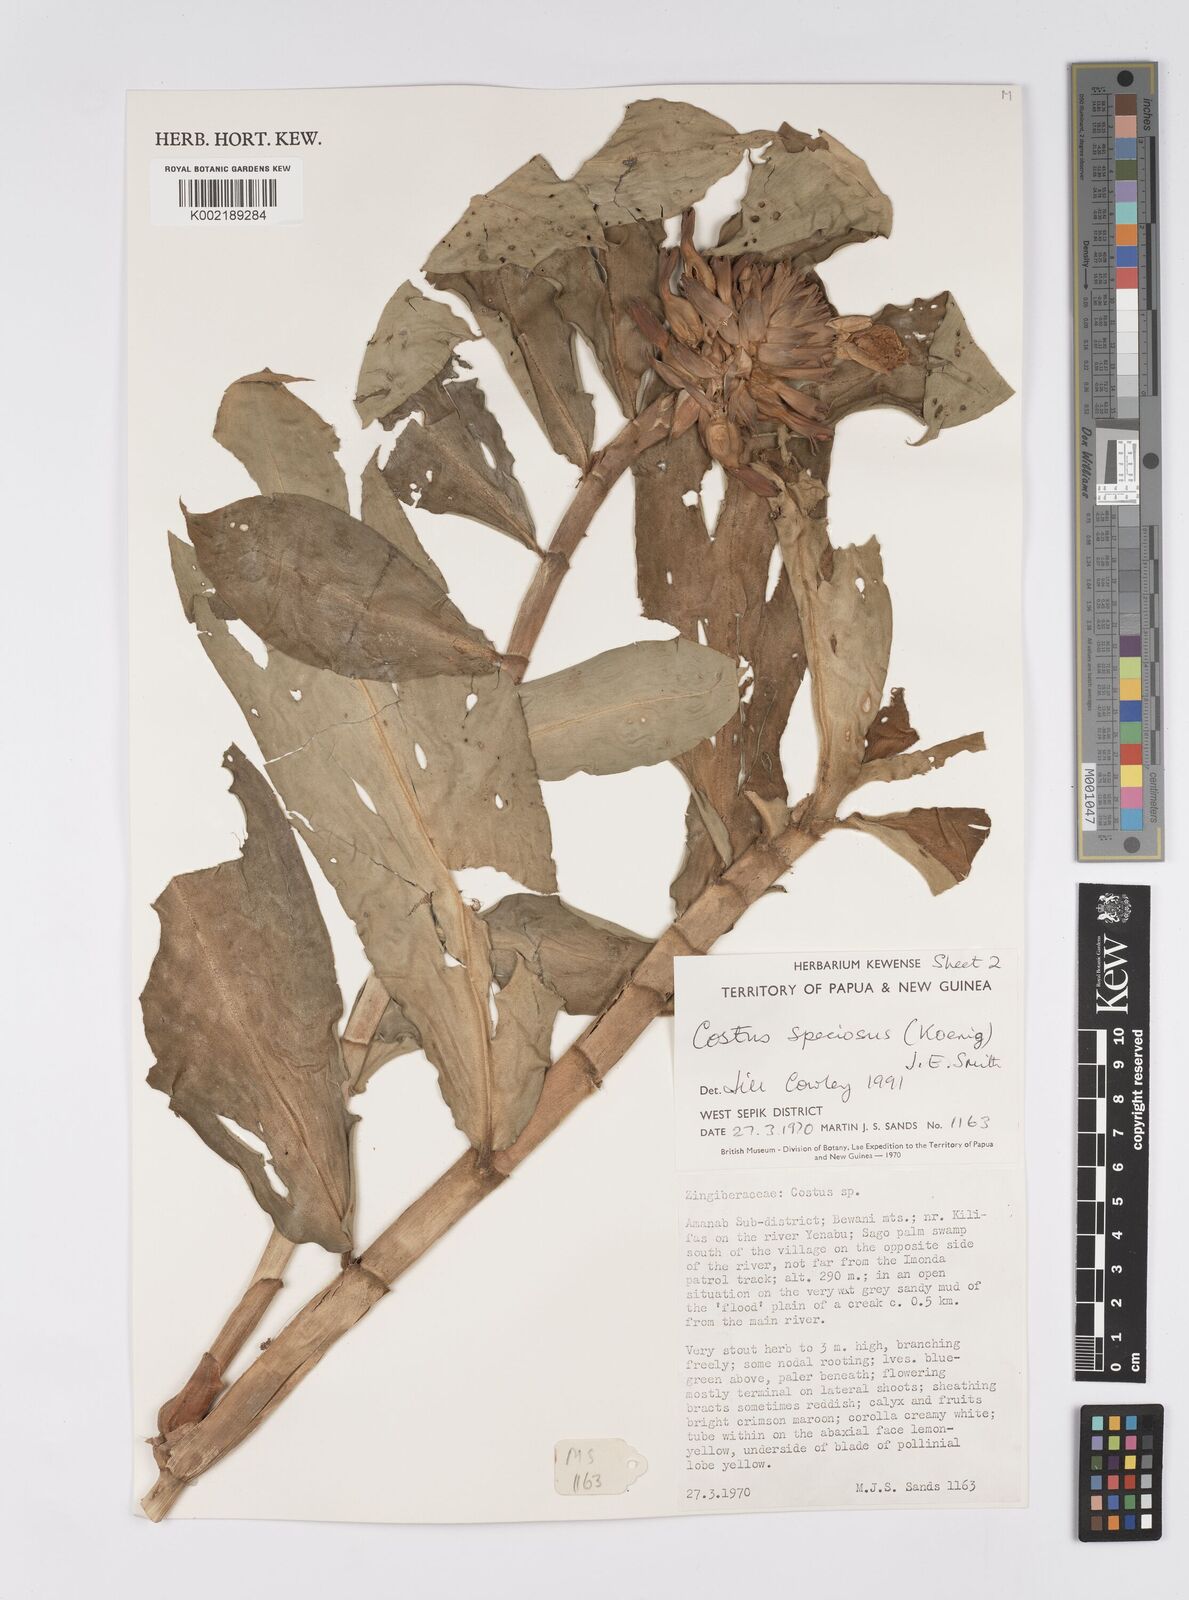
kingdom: Plantae
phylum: Tracheophyta
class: Liliopsida
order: Zingiberales
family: Costaceae
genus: Hellenia
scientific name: Hellenia speciosa
